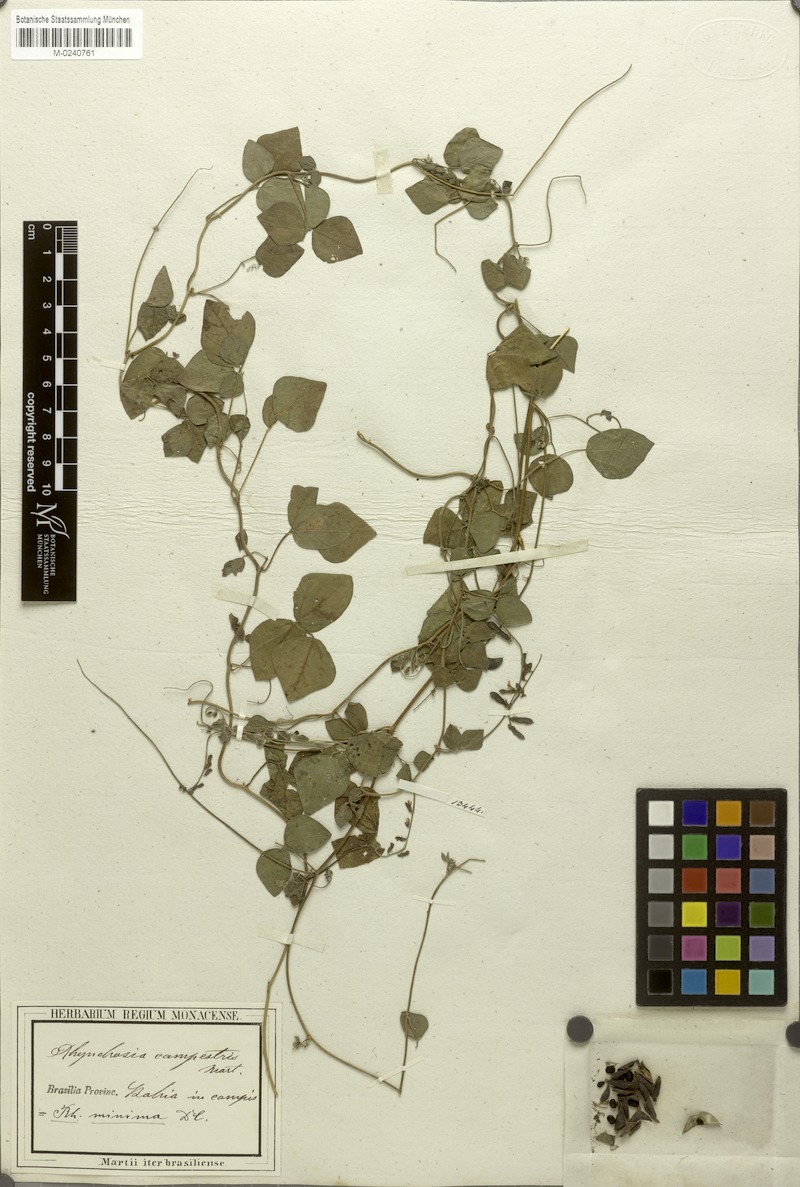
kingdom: Plantae
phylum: Tracheophyta
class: Magnoliopsida
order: Fabales
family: Fabaceae
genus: Rhynchosia
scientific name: Rhynchosia minima
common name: Least snoutbean
